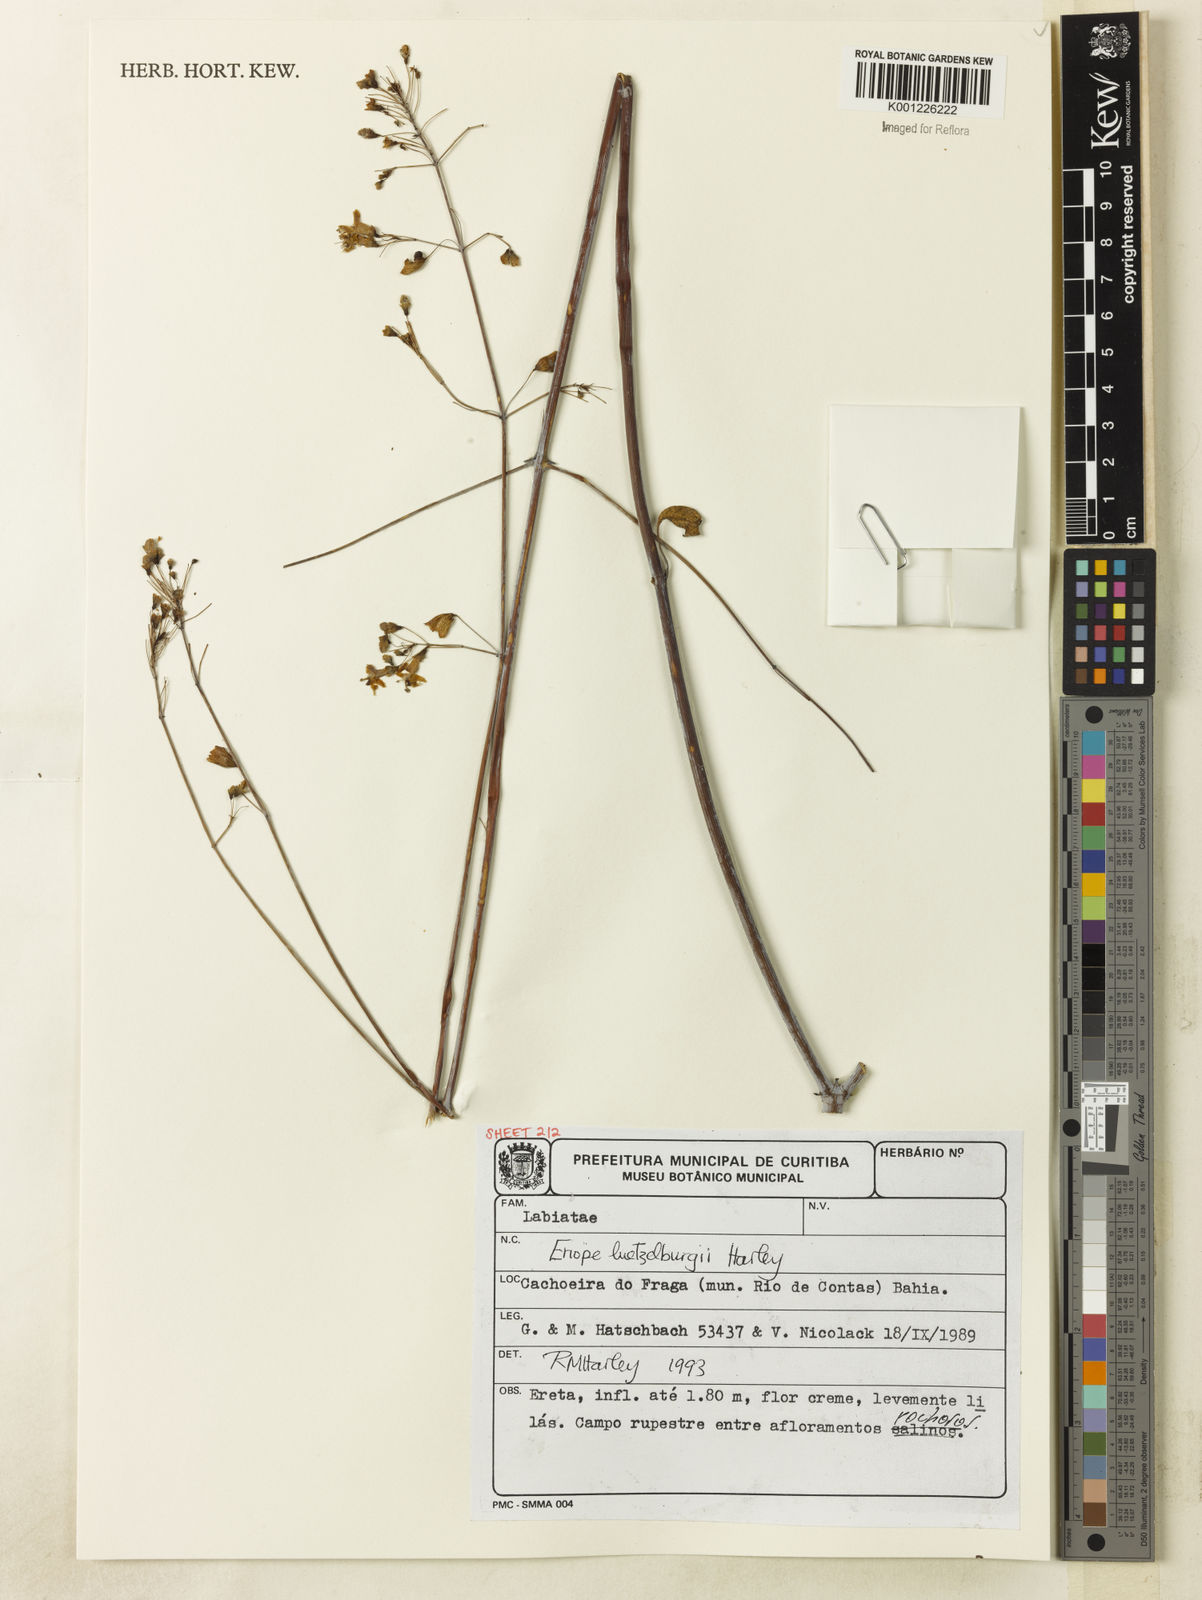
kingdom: Plantae
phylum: Tracheophyta
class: Magnoliopsida
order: Lamiales
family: Lamiaceae
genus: Eriope
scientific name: Eriope luetzelburgii
